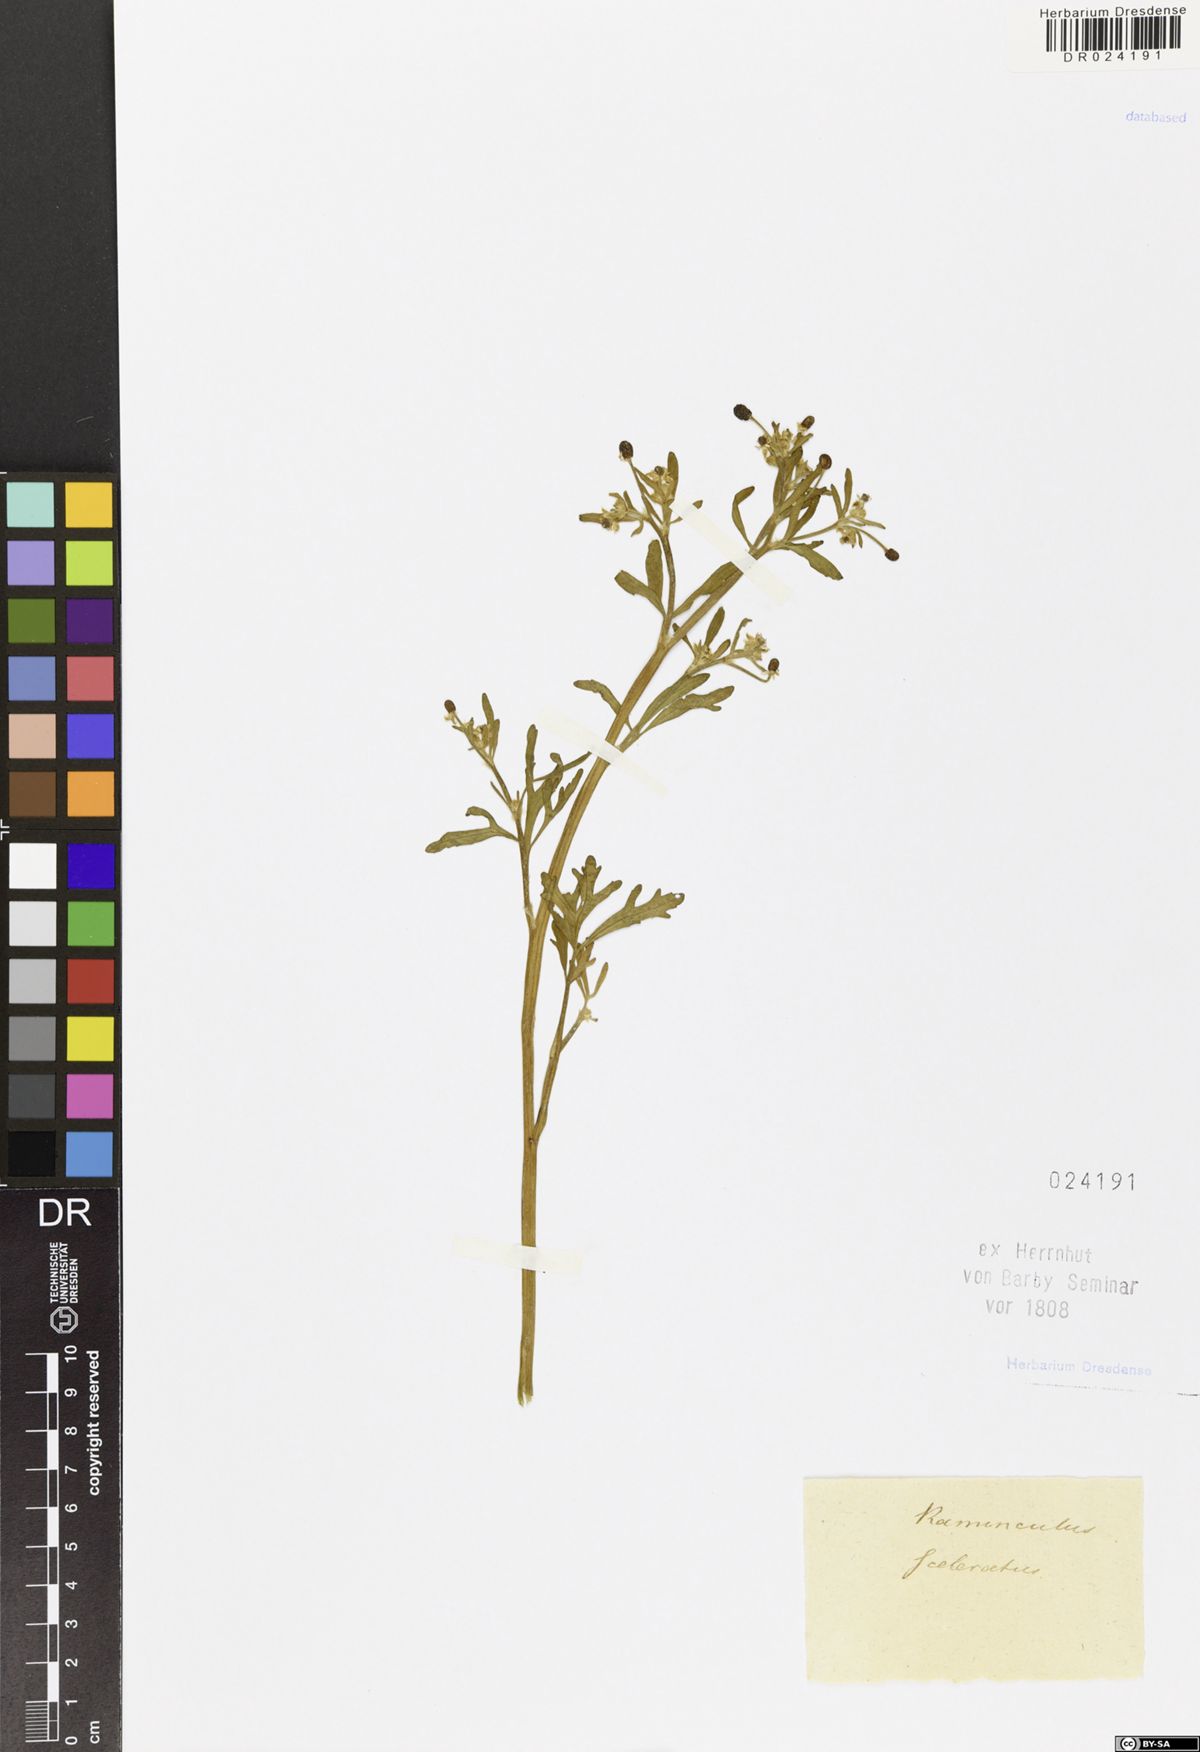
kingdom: Plantae
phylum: Tracheophyta
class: Magnoliopsida
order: Ranunculales
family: Ranunculaceae
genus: Ranunculus
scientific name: Ranunculus sceleratus
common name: Celery-leaved buttercup
